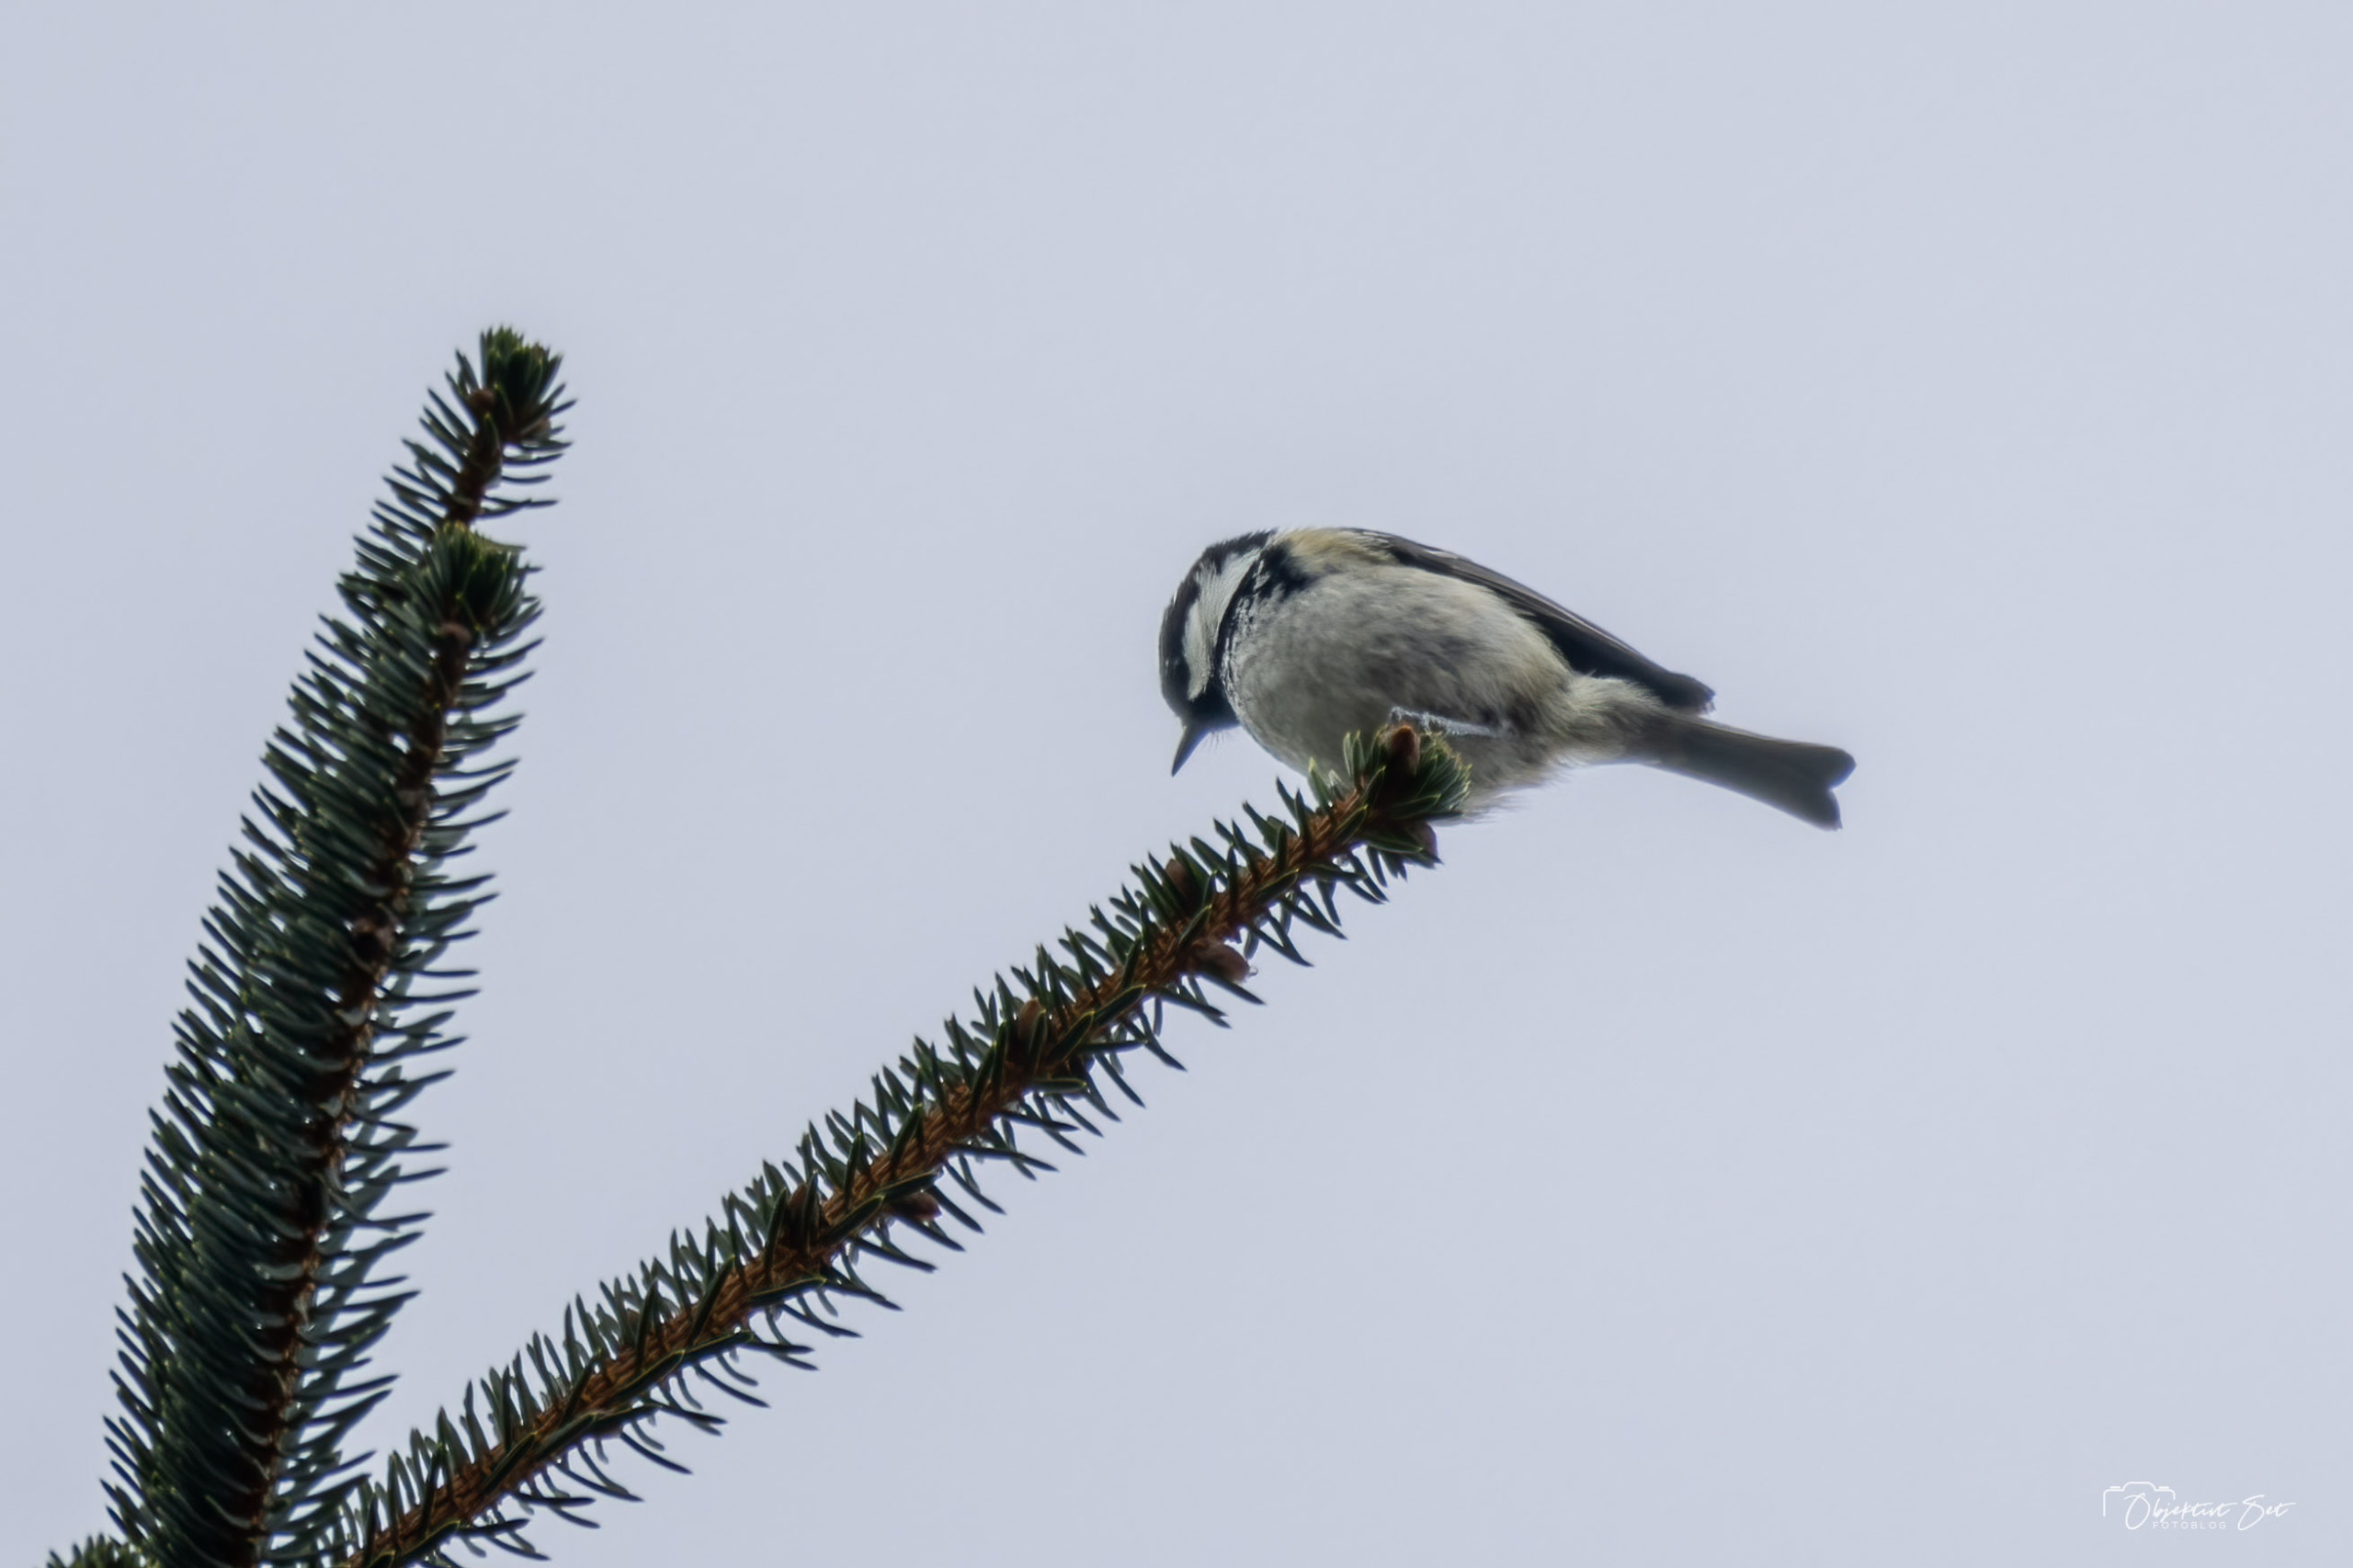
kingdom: Animalia
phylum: Chordata
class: Aves
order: Passeriformes
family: Paridae
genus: Periparus
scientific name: Periparus ater
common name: Sortmejse
